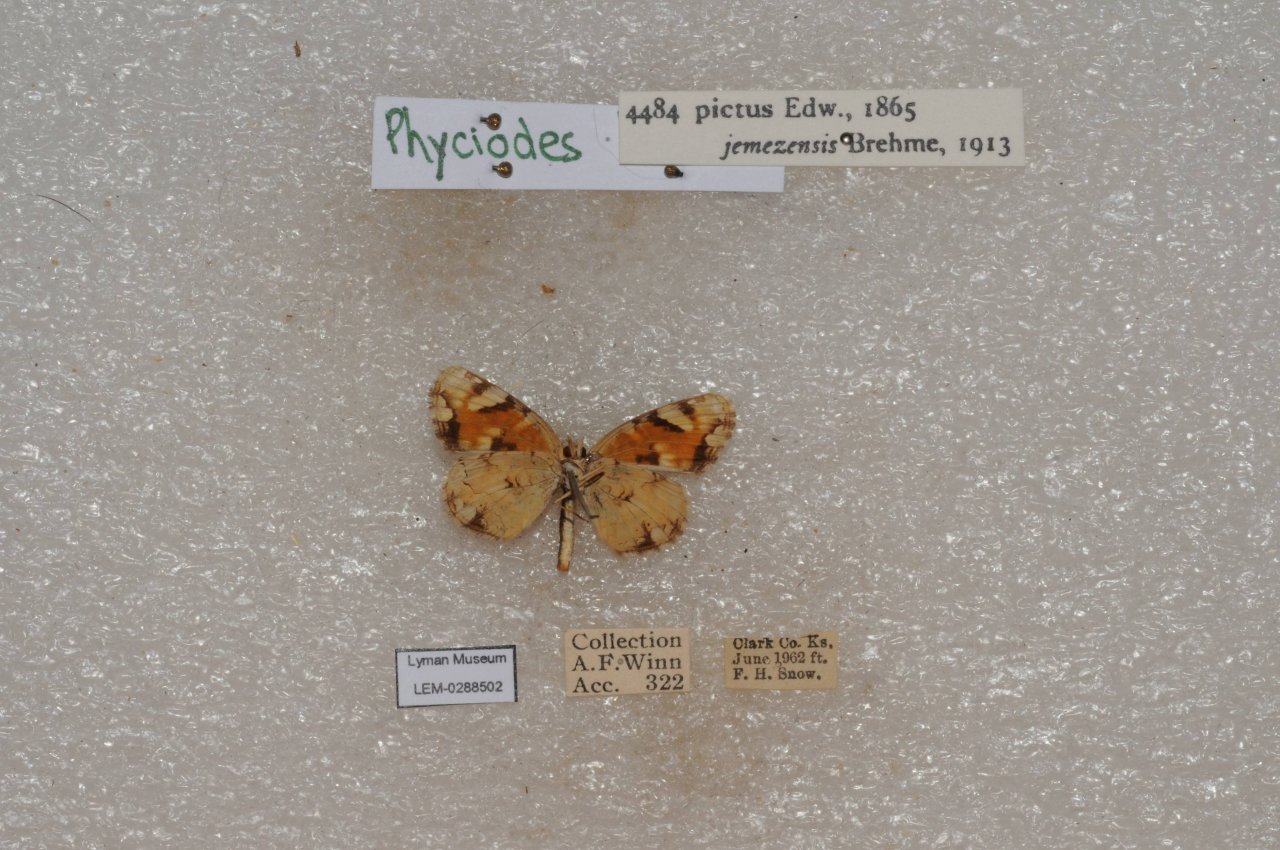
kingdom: Animalia
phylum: Arthropoda
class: Insecta
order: Lepidoptera
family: Nymphalidae
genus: Phyciodes
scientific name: Phyciodes picta
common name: Painted Crescent
